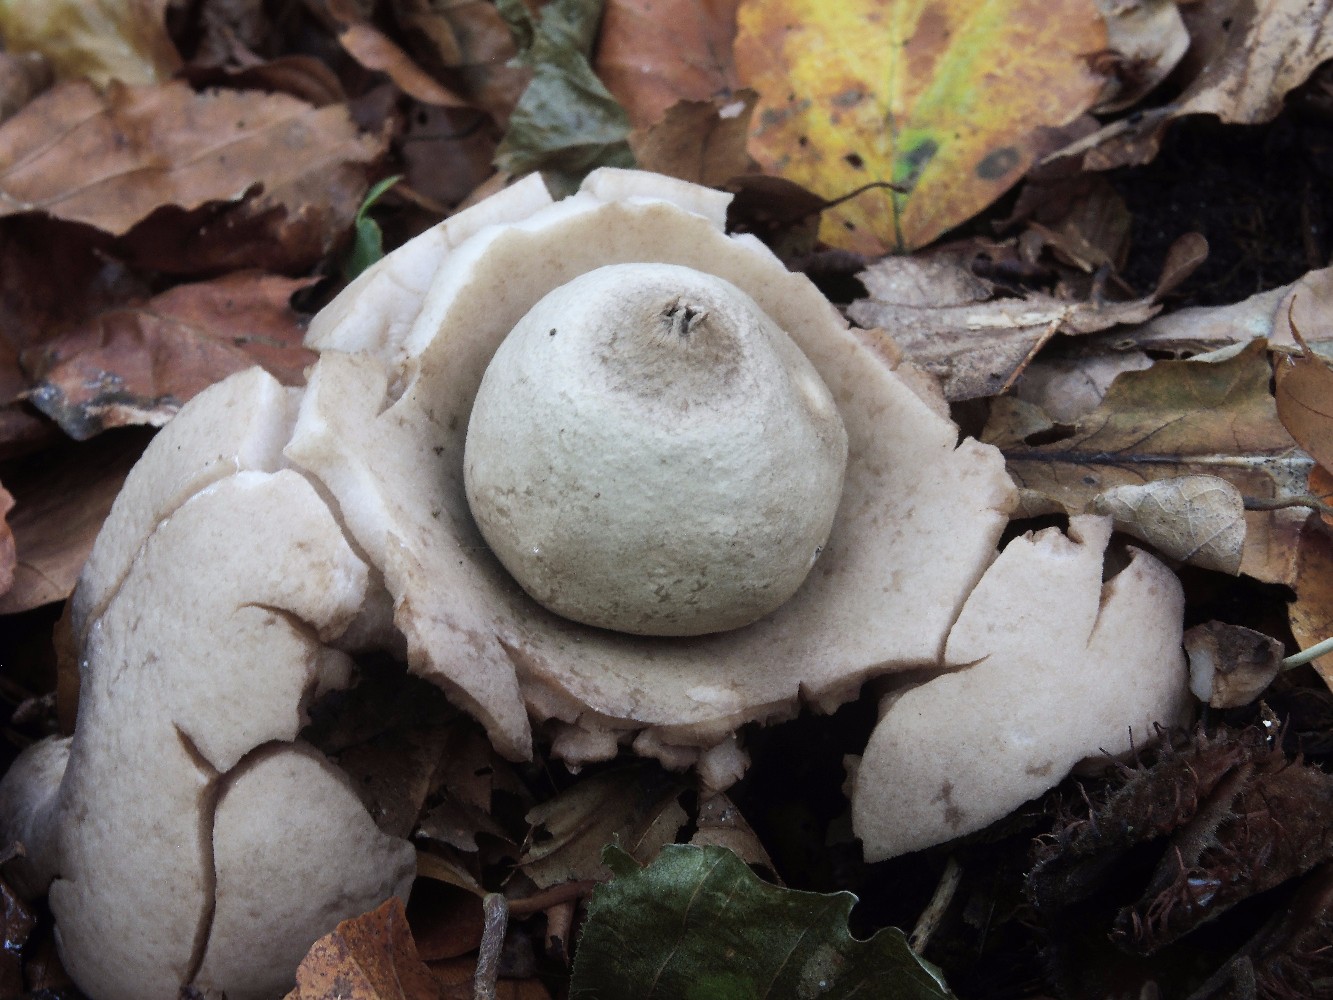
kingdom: Fungi
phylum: Basidiomycota
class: Agaricomycetes
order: Geastrales
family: Geastraceae
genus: Geastrum
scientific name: Geastrum michelianum
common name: kødet stjernebold
